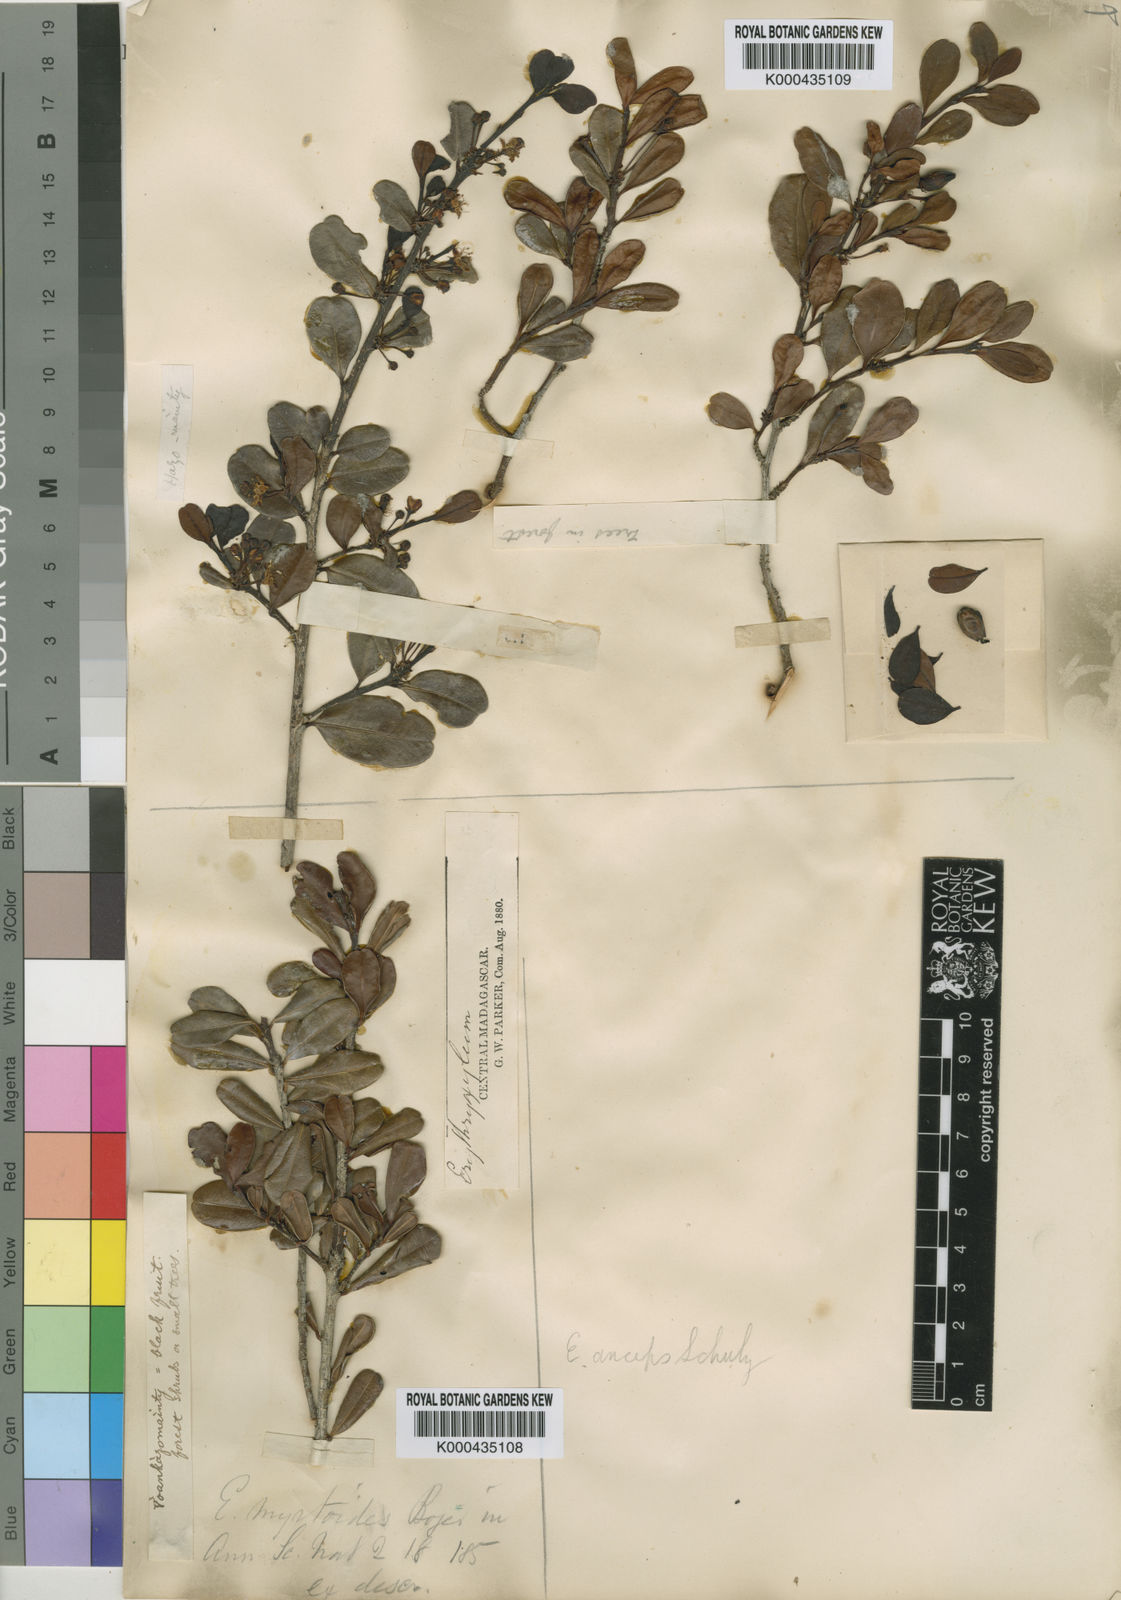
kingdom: Plantae
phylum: Tracheophyta
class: Magnoliopsida
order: Malpighiales
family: Erythroxylaceae
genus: Erythroxylum
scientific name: Erythroxylum ferrugineum
